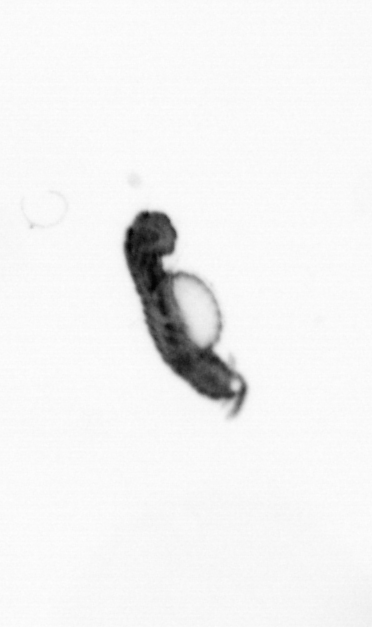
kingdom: Animalia
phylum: Annelida
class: Polychaeta
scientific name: Polychaeta
